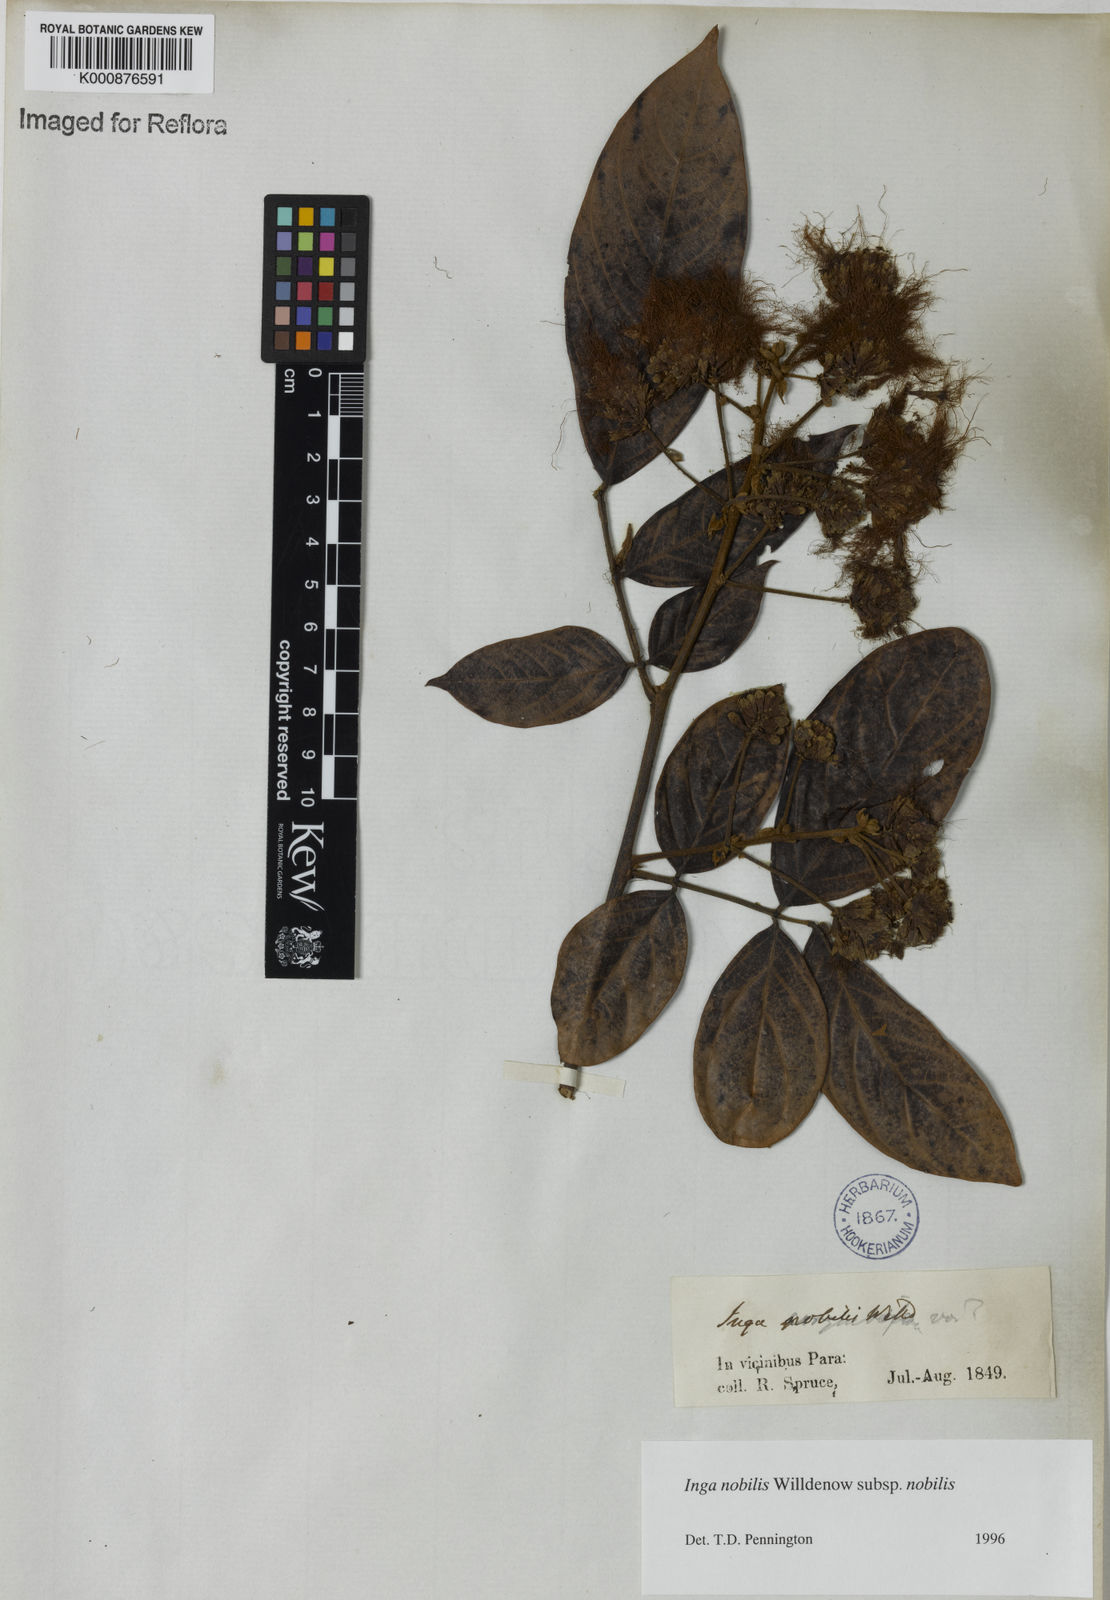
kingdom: Plantae
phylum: Tracheophyta
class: Magnoliopsida
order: Fabales
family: Fabaceae
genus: Inga
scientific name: Inga nobilis
